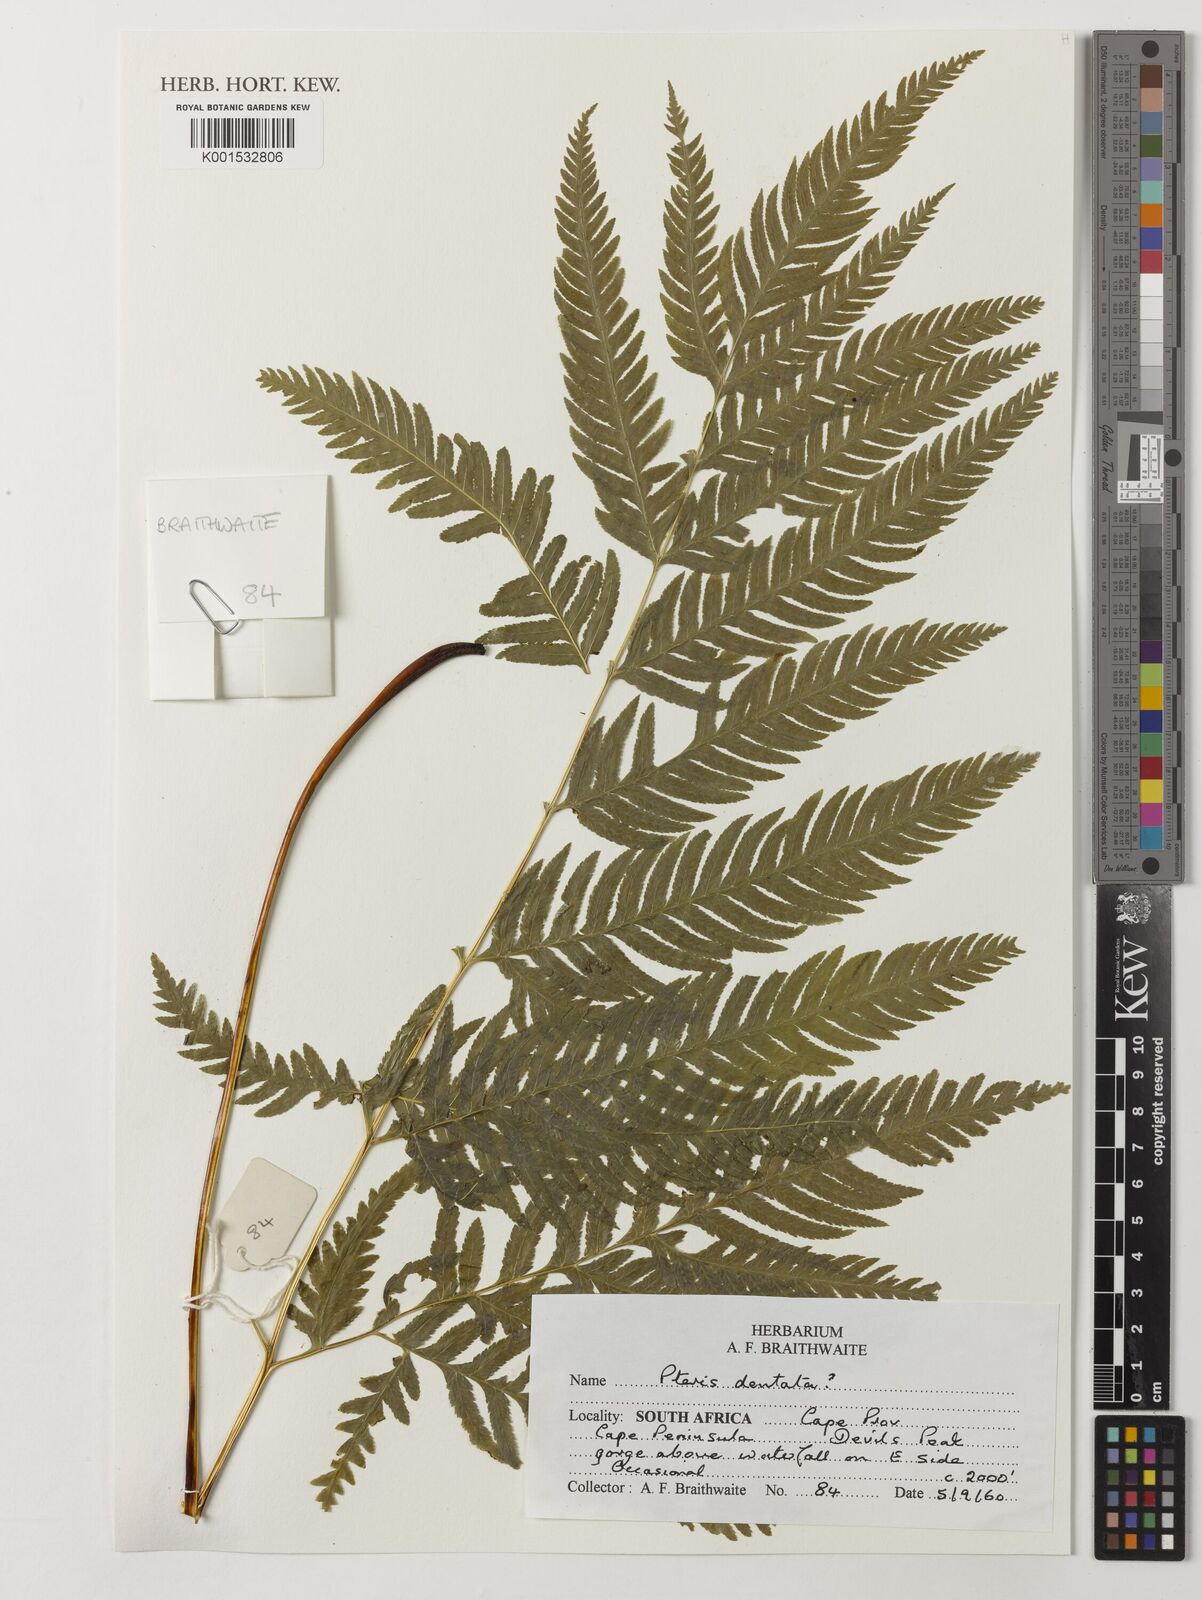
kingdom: Plantae
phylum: Tracheophyta
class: Polypodiopsida
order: Polypodiales
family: Pteridaceae
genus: Pteris
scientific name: Pteris dentata
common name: Toothed brake
